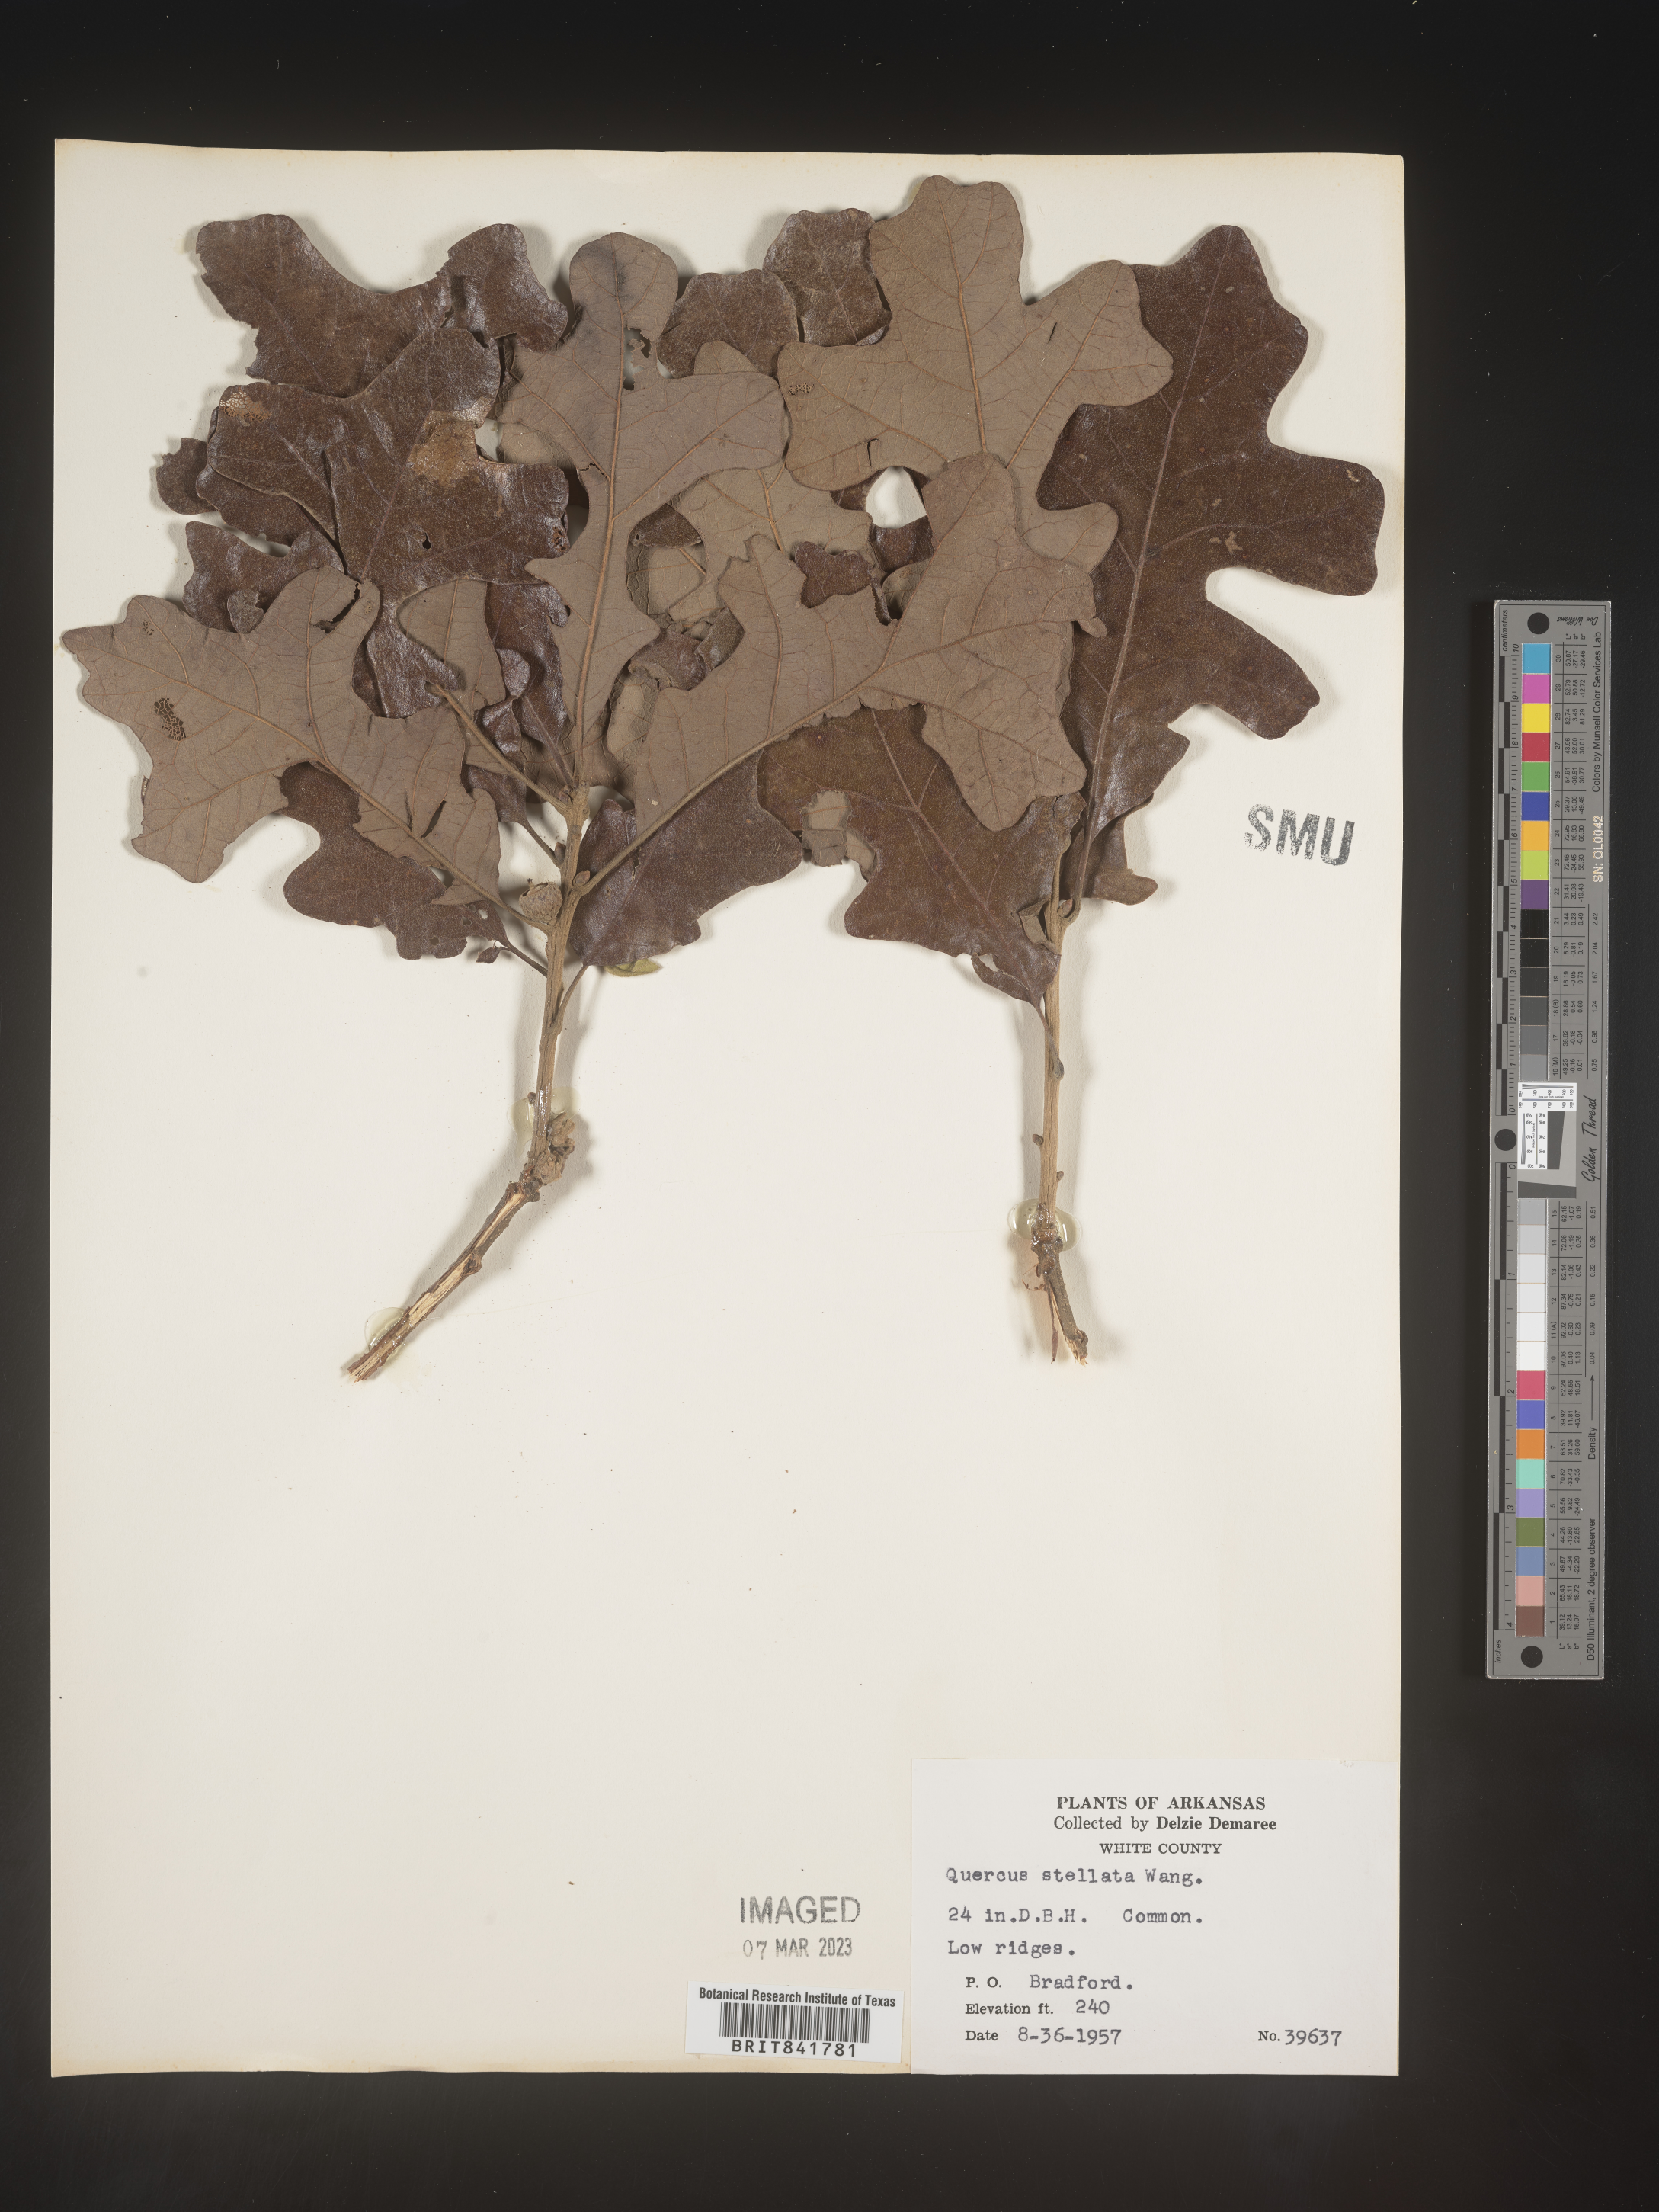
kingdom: Plantae
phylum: Tracheophyta
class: Magnoliopsida
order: Fagales
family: Fagaceae
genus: Quercus
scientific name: Quercus stellata
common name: Post oak
